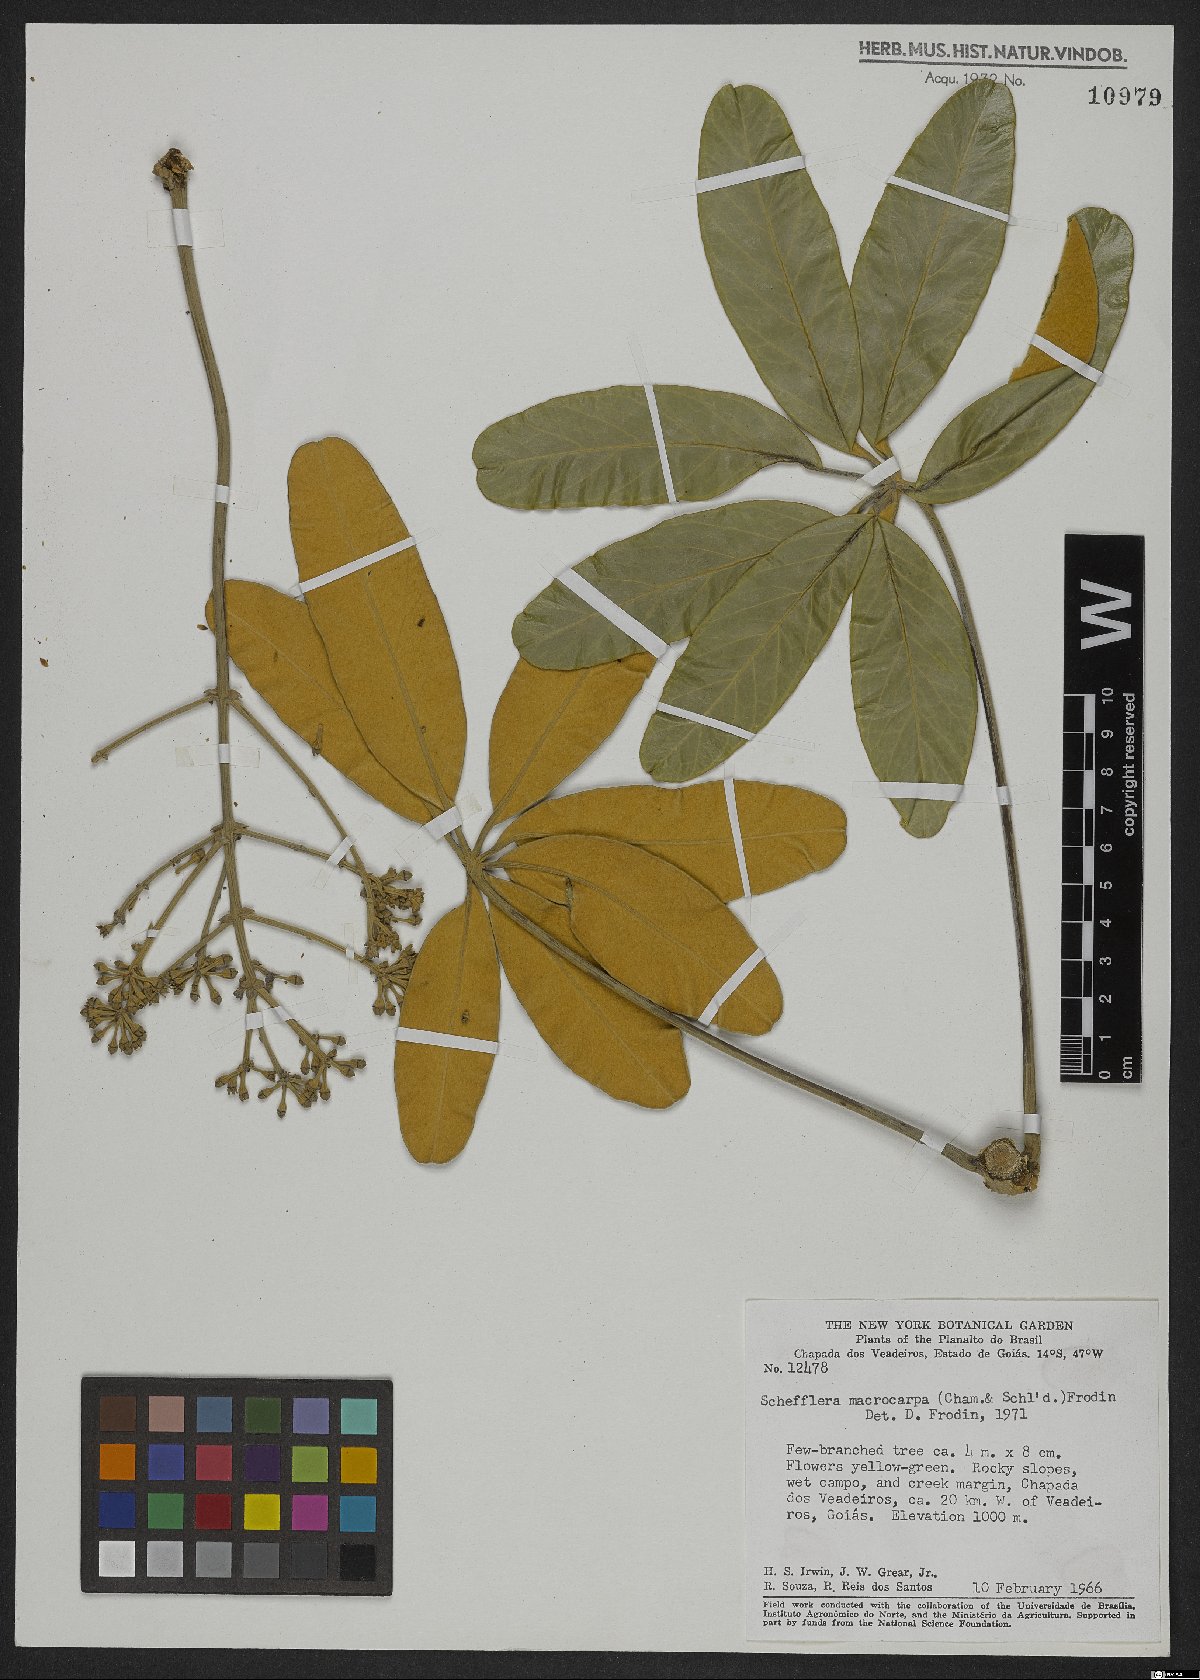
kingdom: Plantae
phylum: Tracheophyta
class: Magnoliopsida
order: Apiales
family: Araliaceae
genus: Didymopanax
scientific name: Didymopanax macrocarpus
